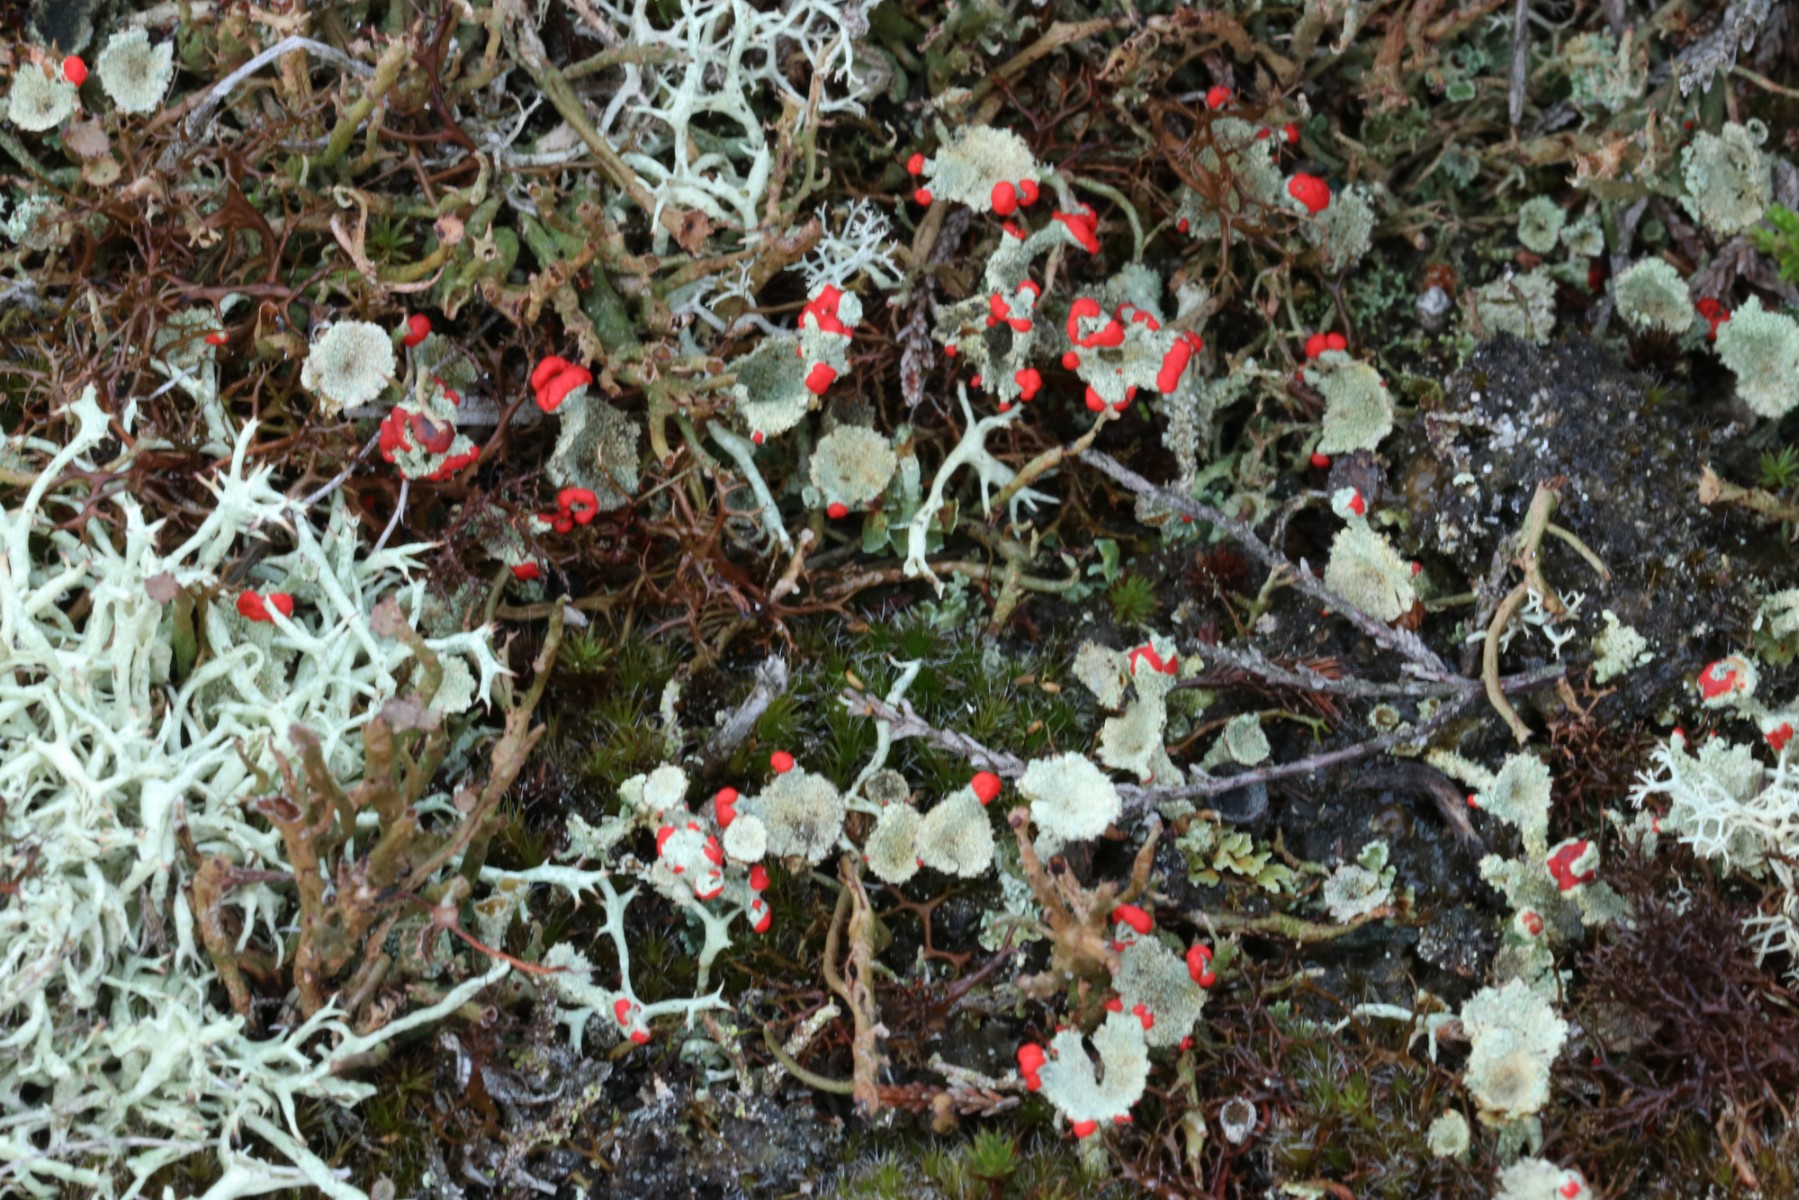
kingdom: Fungi
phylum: Ascomycota
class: Lecanoromycetes
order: Lecanorales
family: Cladoniaceae
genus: Cladonia
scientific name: Cladonia diversa
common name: rød bægerlav
